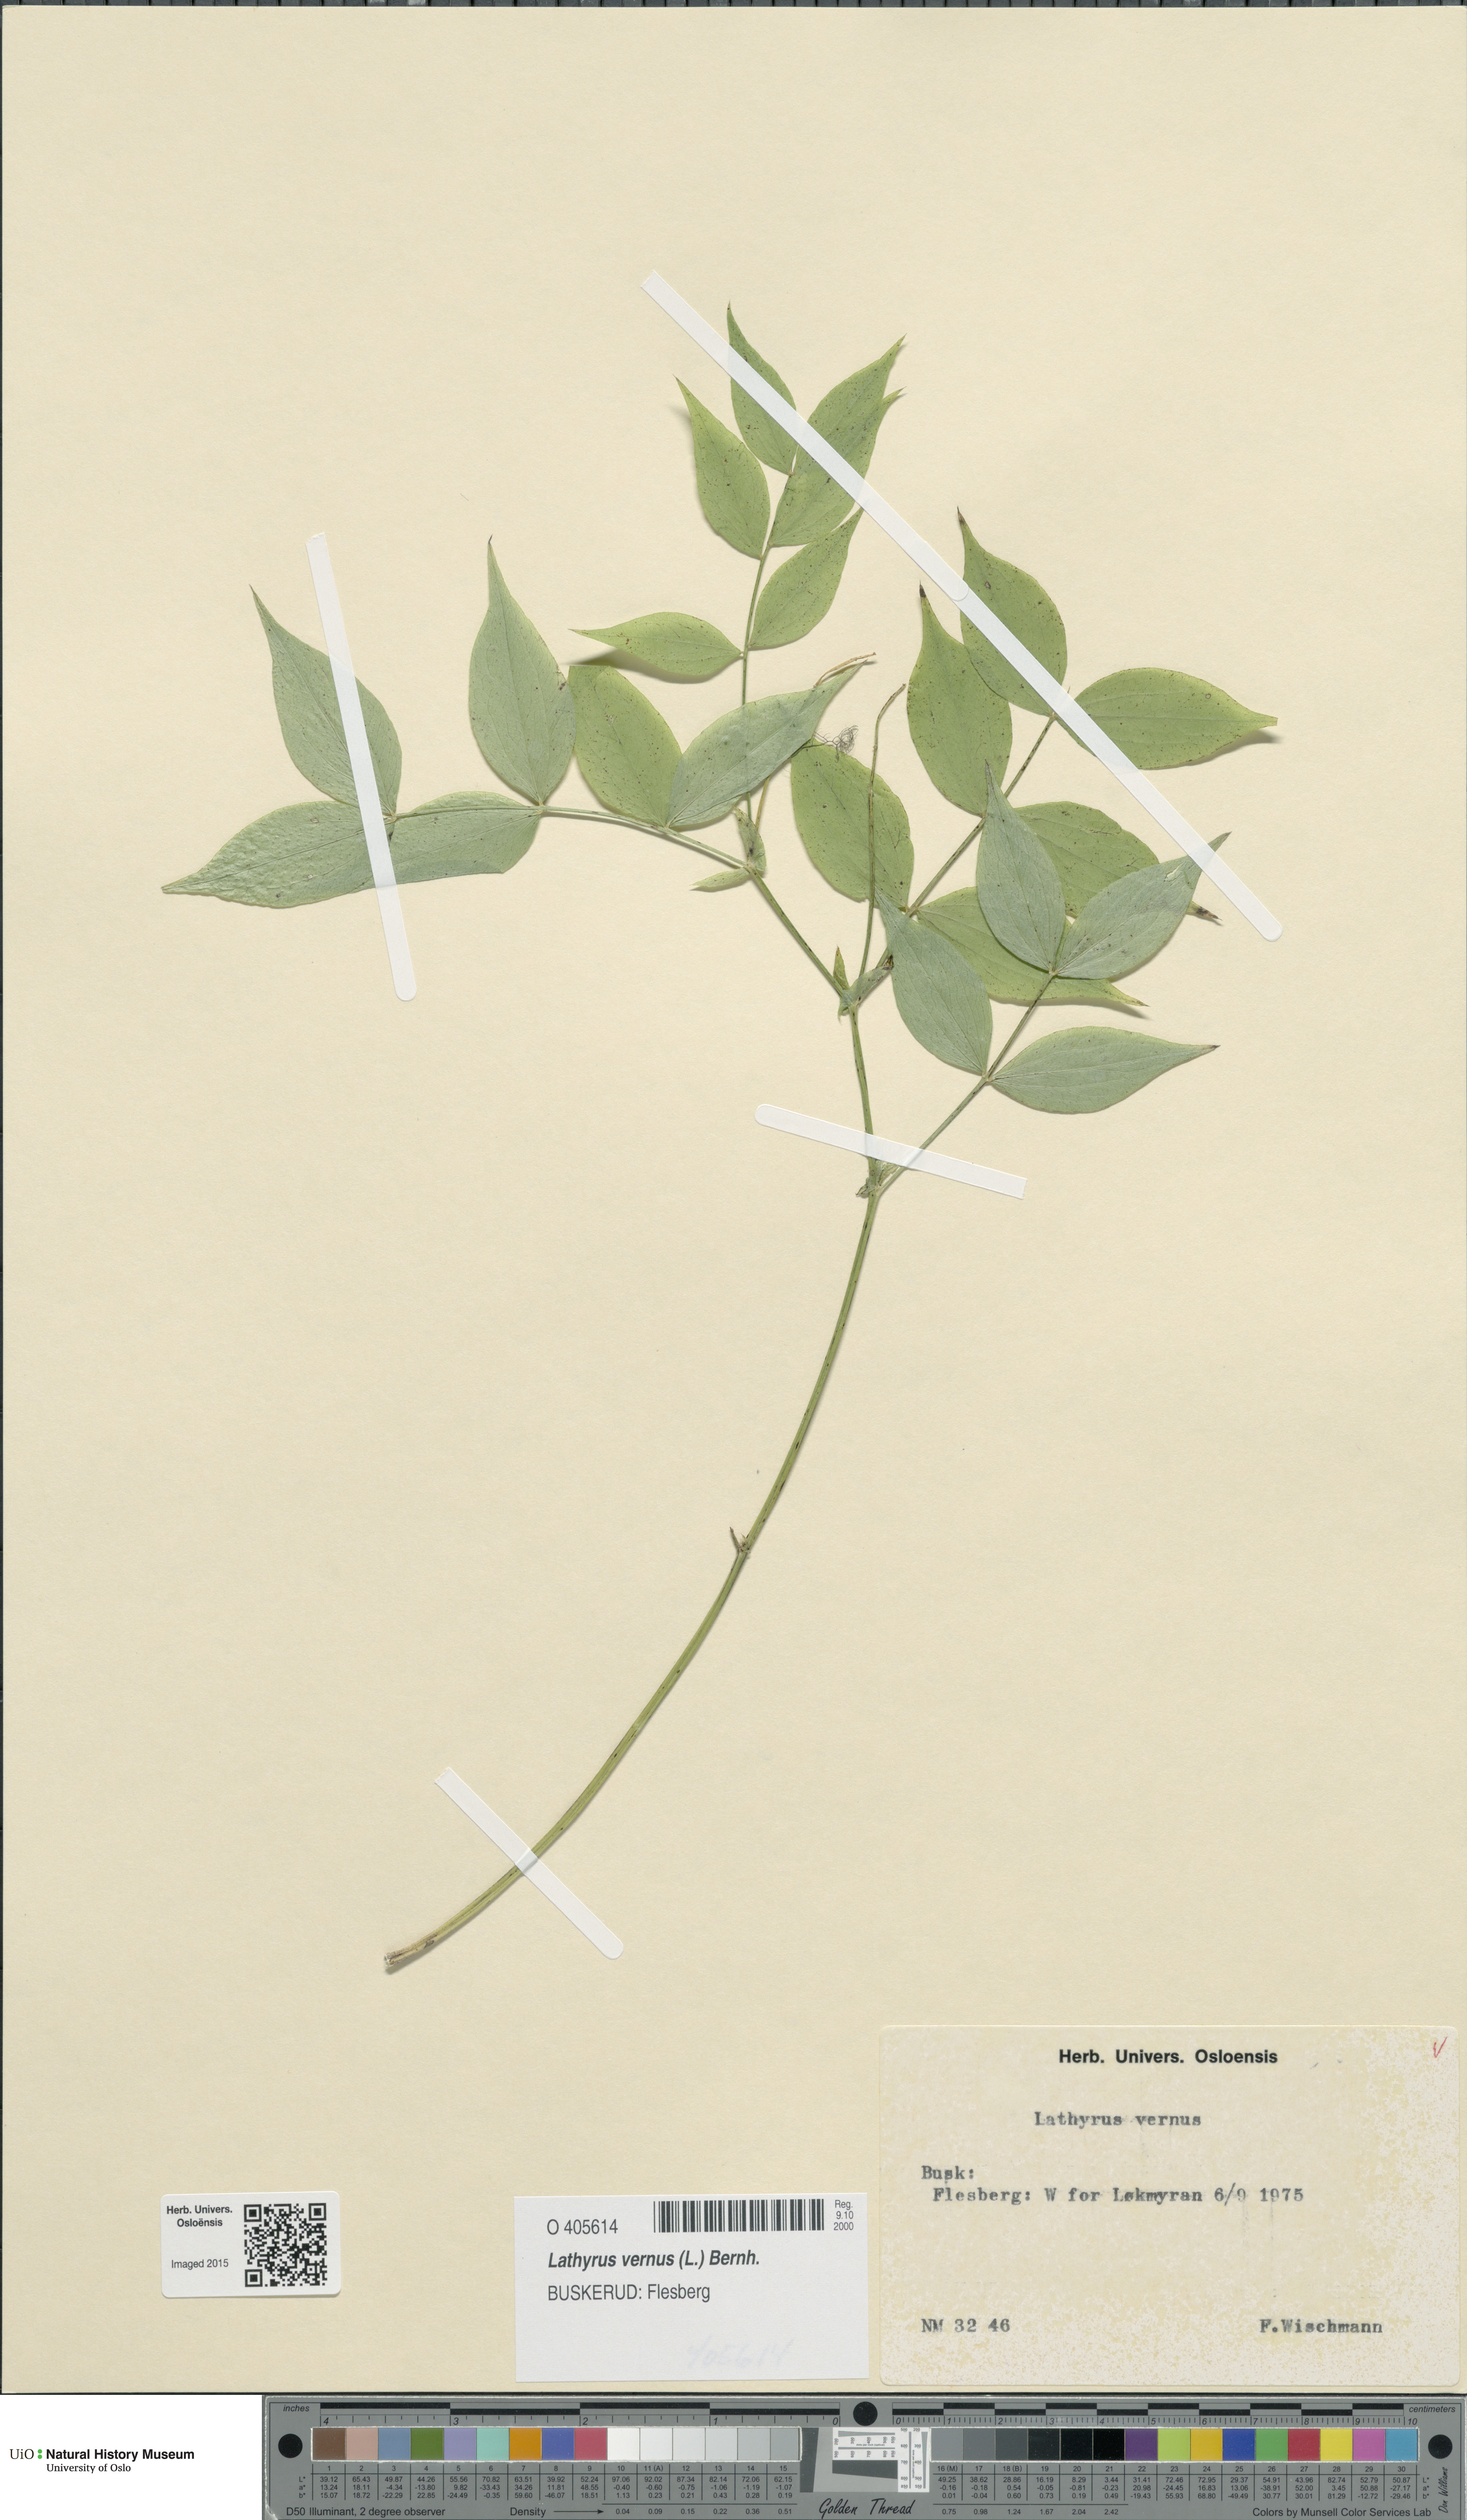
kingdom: Plantae
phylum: Tracheophyta
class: Magnoliopsida
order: Fabales
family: Fabaceae
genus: Lathyrus
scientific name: Lathyrus vernus
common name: Spring pea
